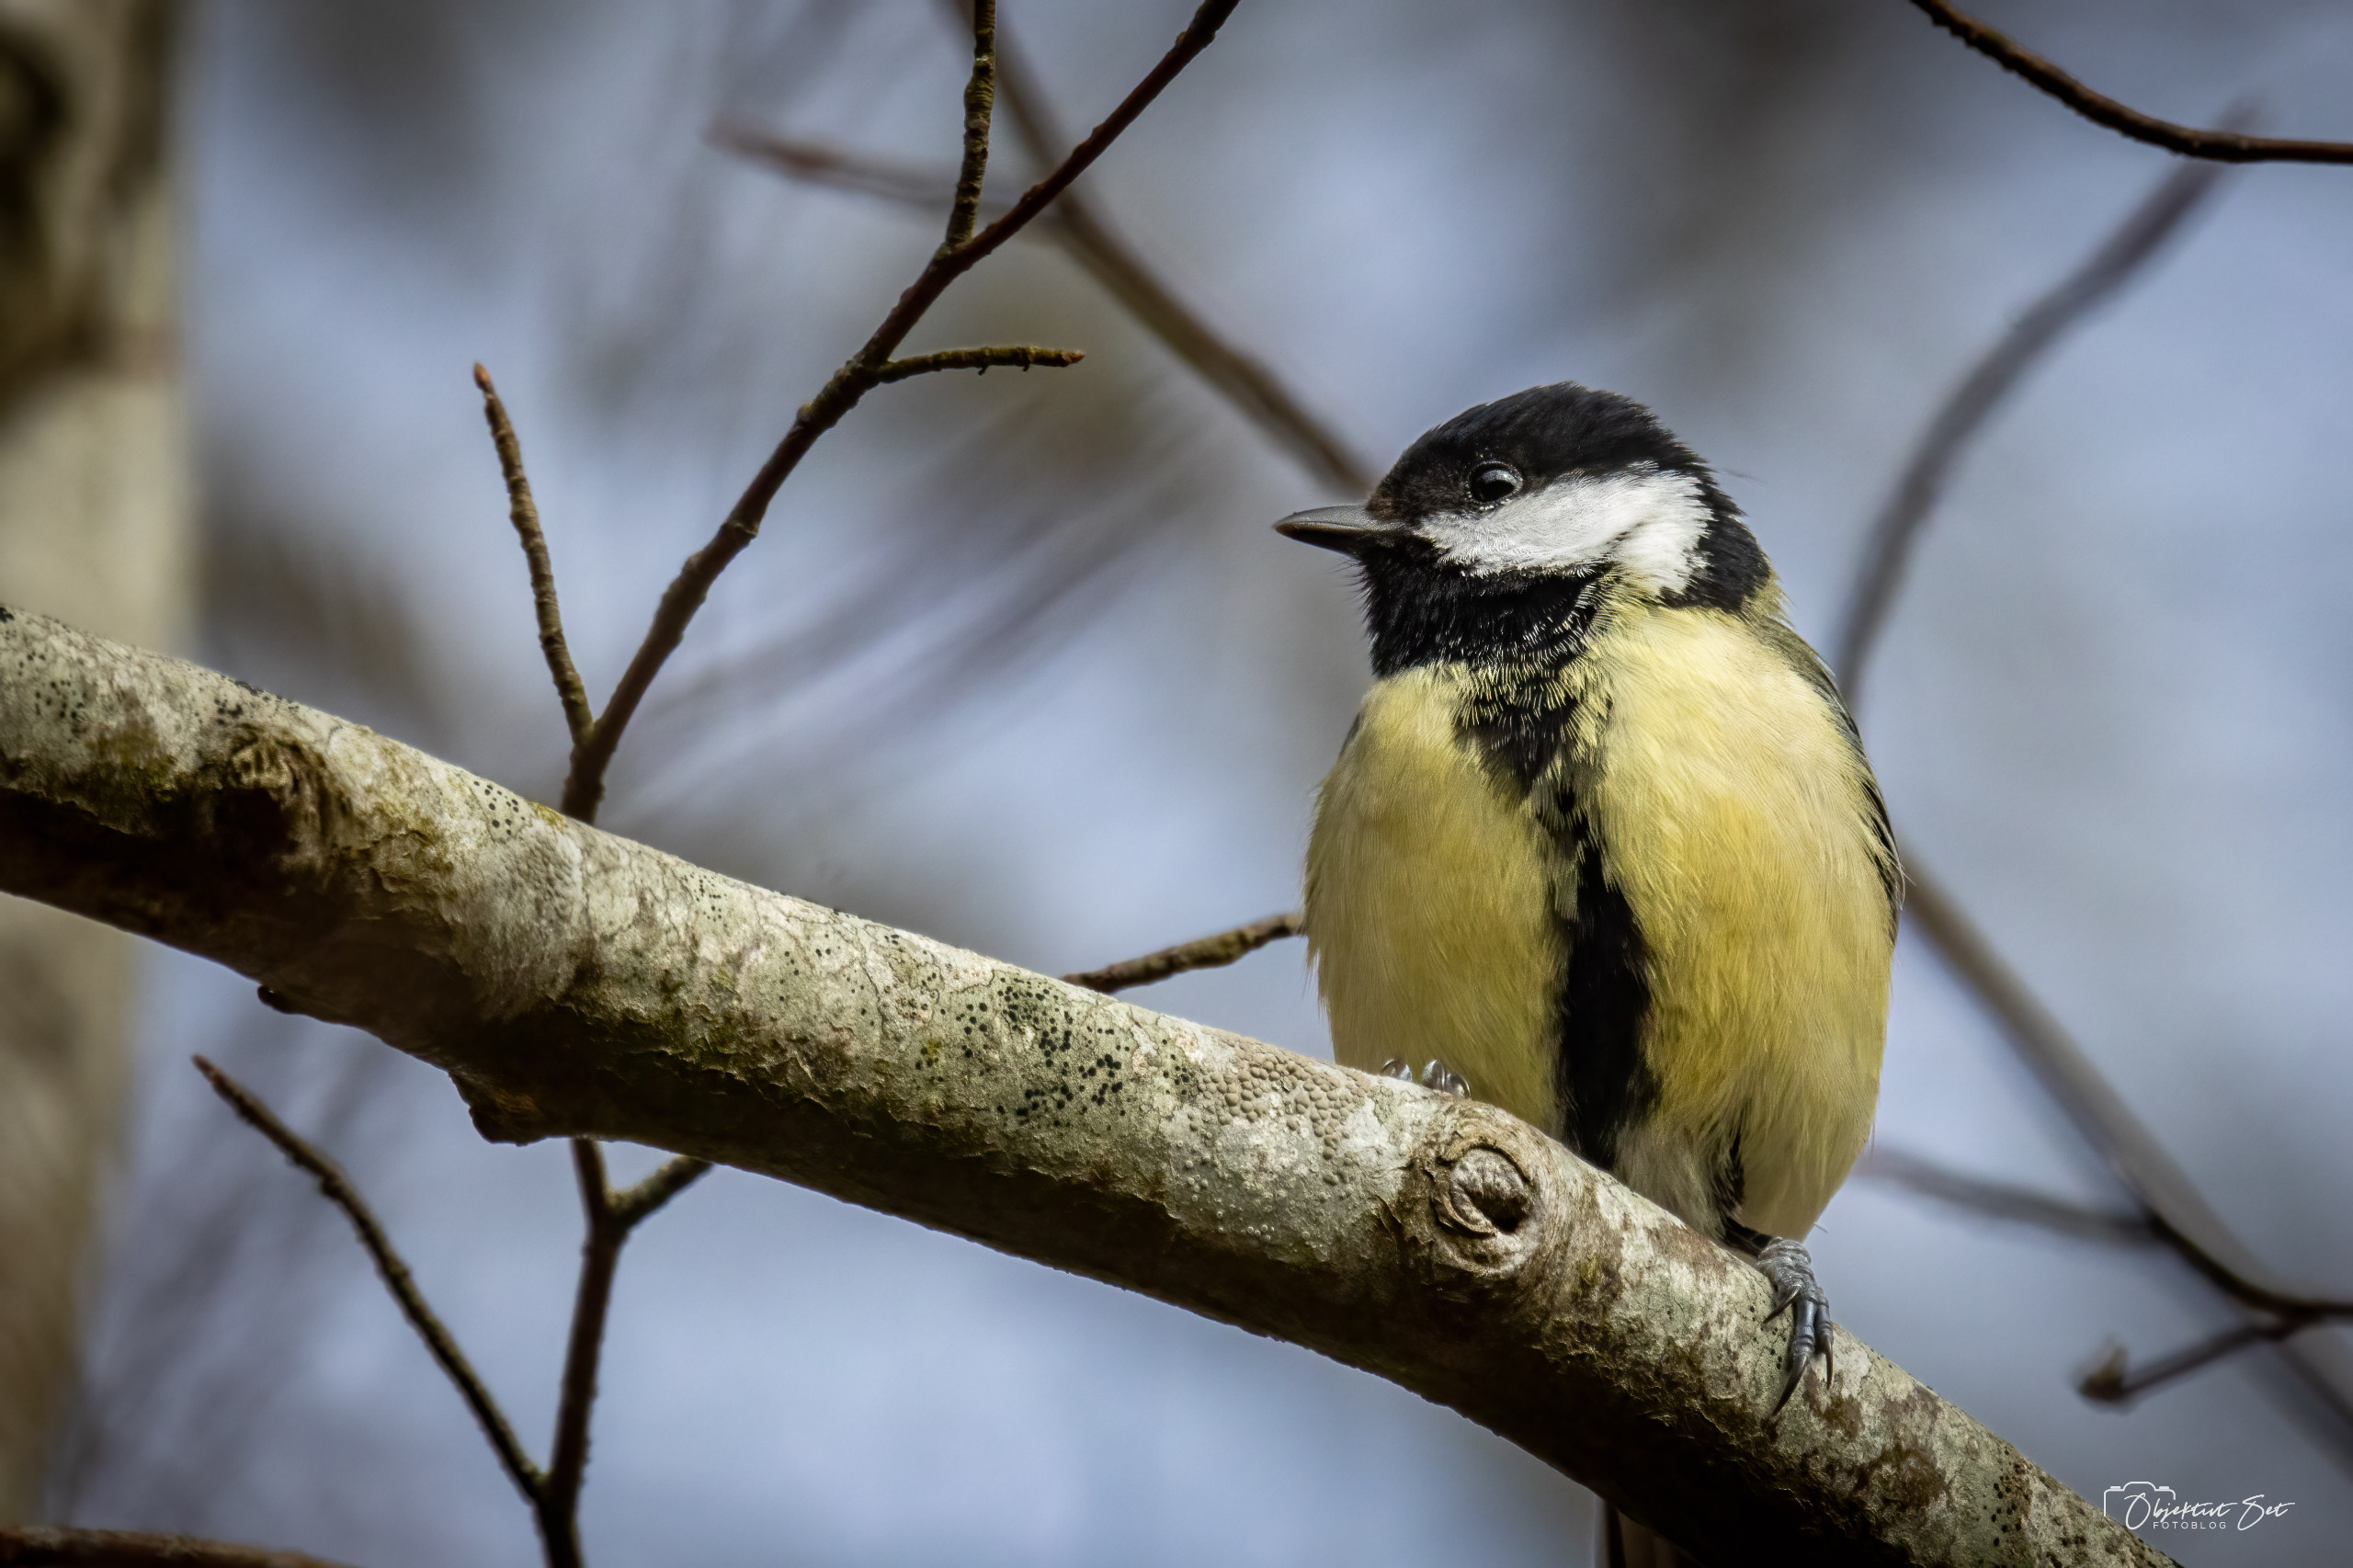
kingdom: Animalia
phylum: Chordata
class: Aves
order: Passeriformes
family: Paridae
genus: Parus
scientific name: Parus major
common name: Musvit
